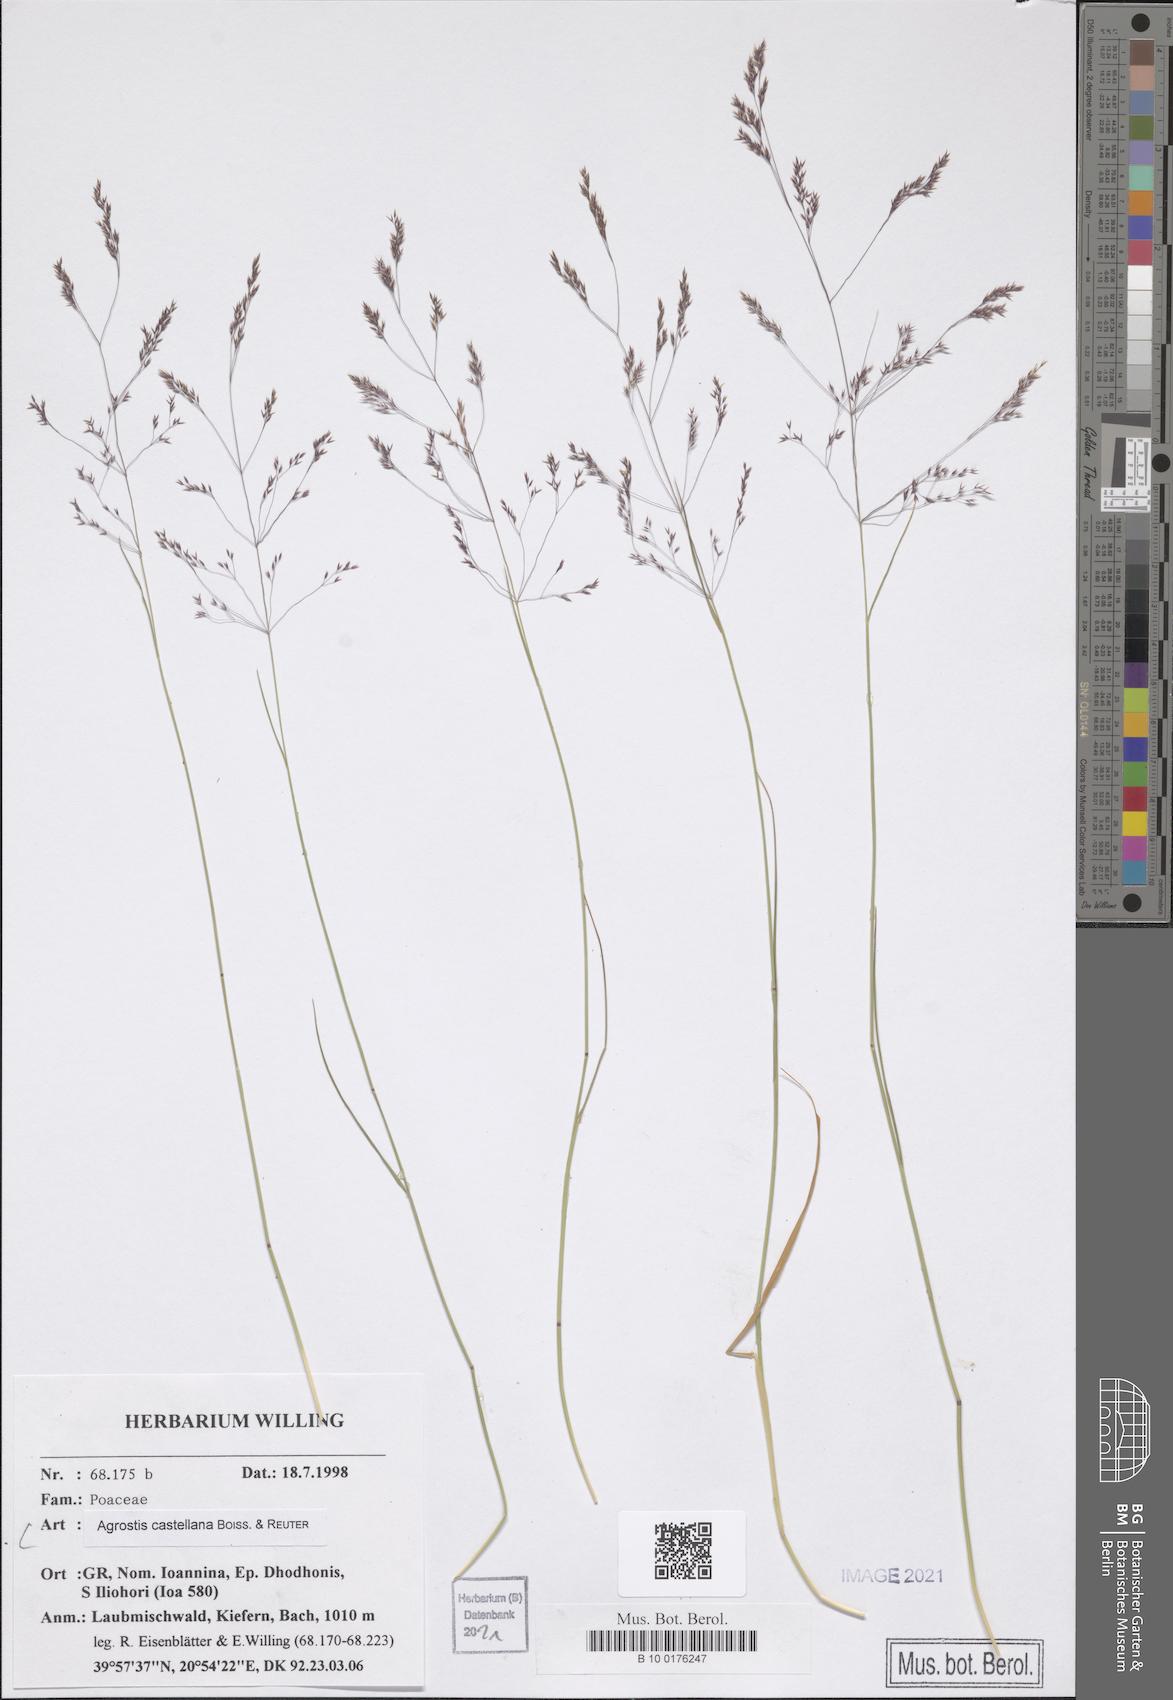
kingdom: Plantae
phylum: Tracheophyta
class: Liliopsida
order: Poales
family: Poaceae
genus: Agrostis
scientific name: Agrostis castellana
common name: Highland bent
